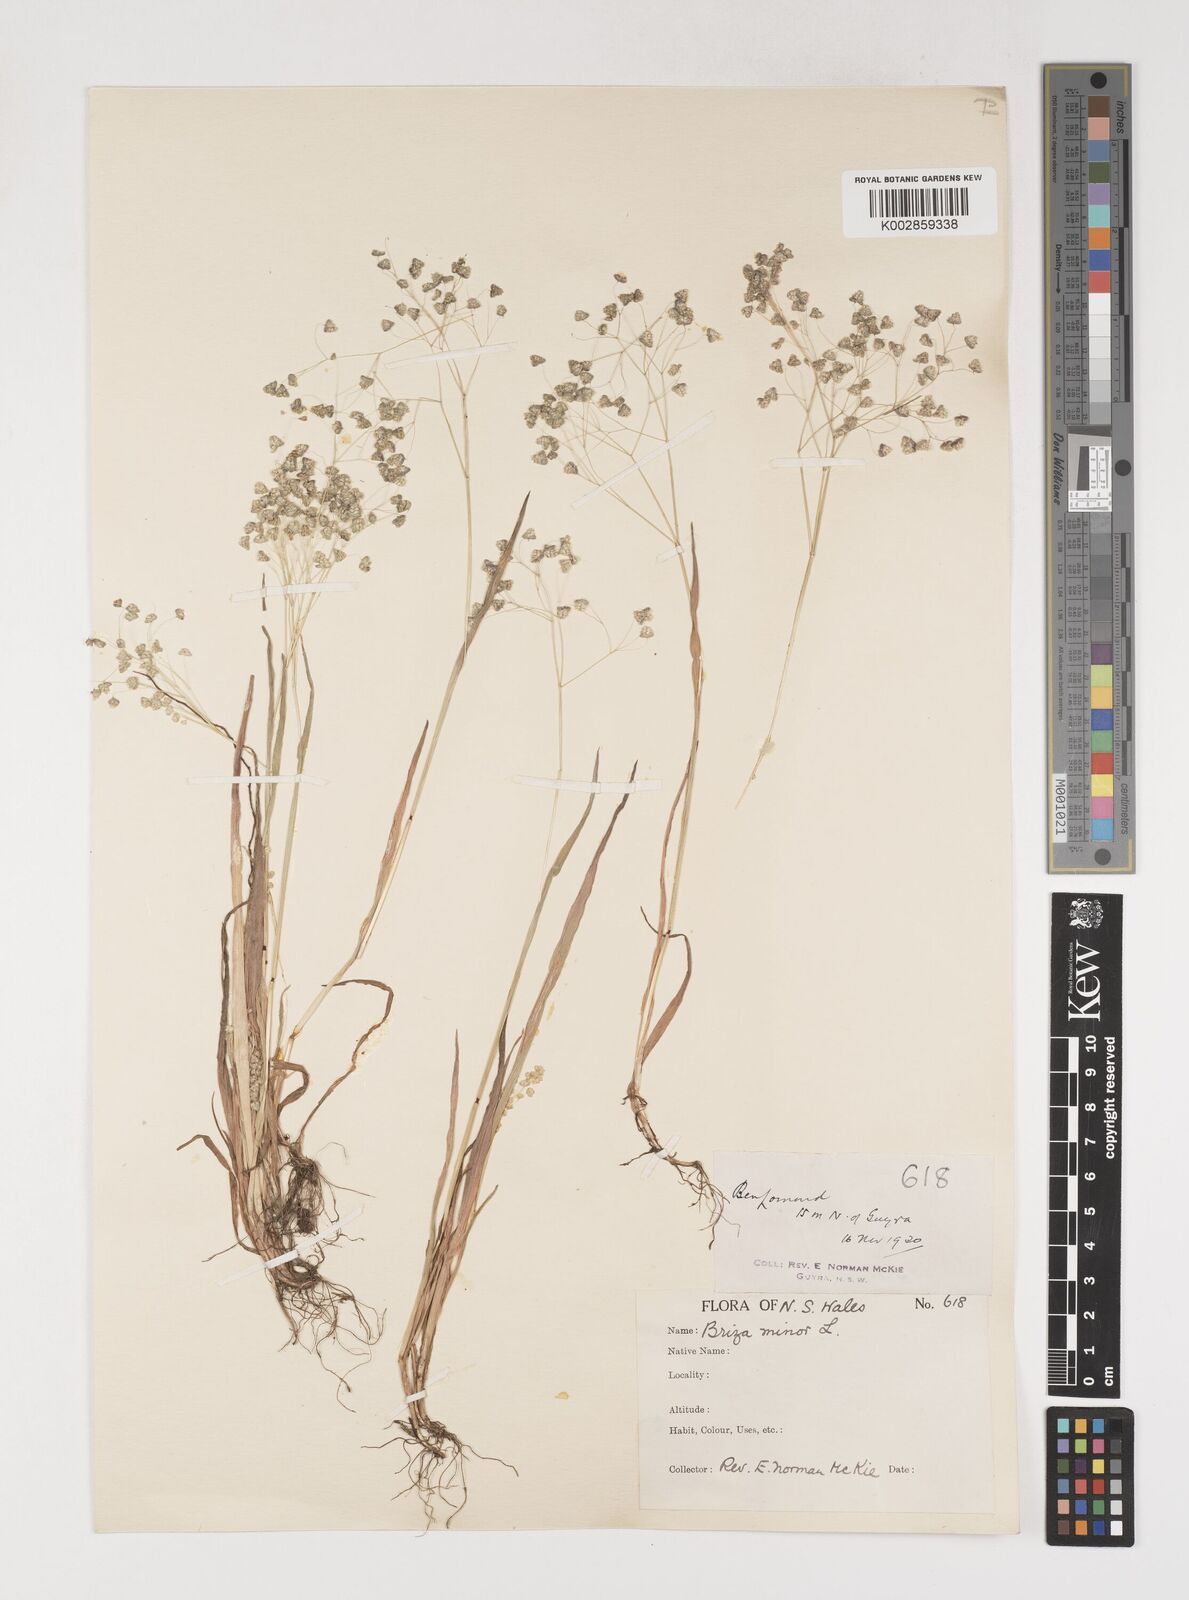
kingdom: Plantae
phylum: Tracheophyta
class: Liliopsida
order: Poales
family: Poaceae
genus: Briza
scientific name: Briza minor
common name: Lesser quaking-grass
